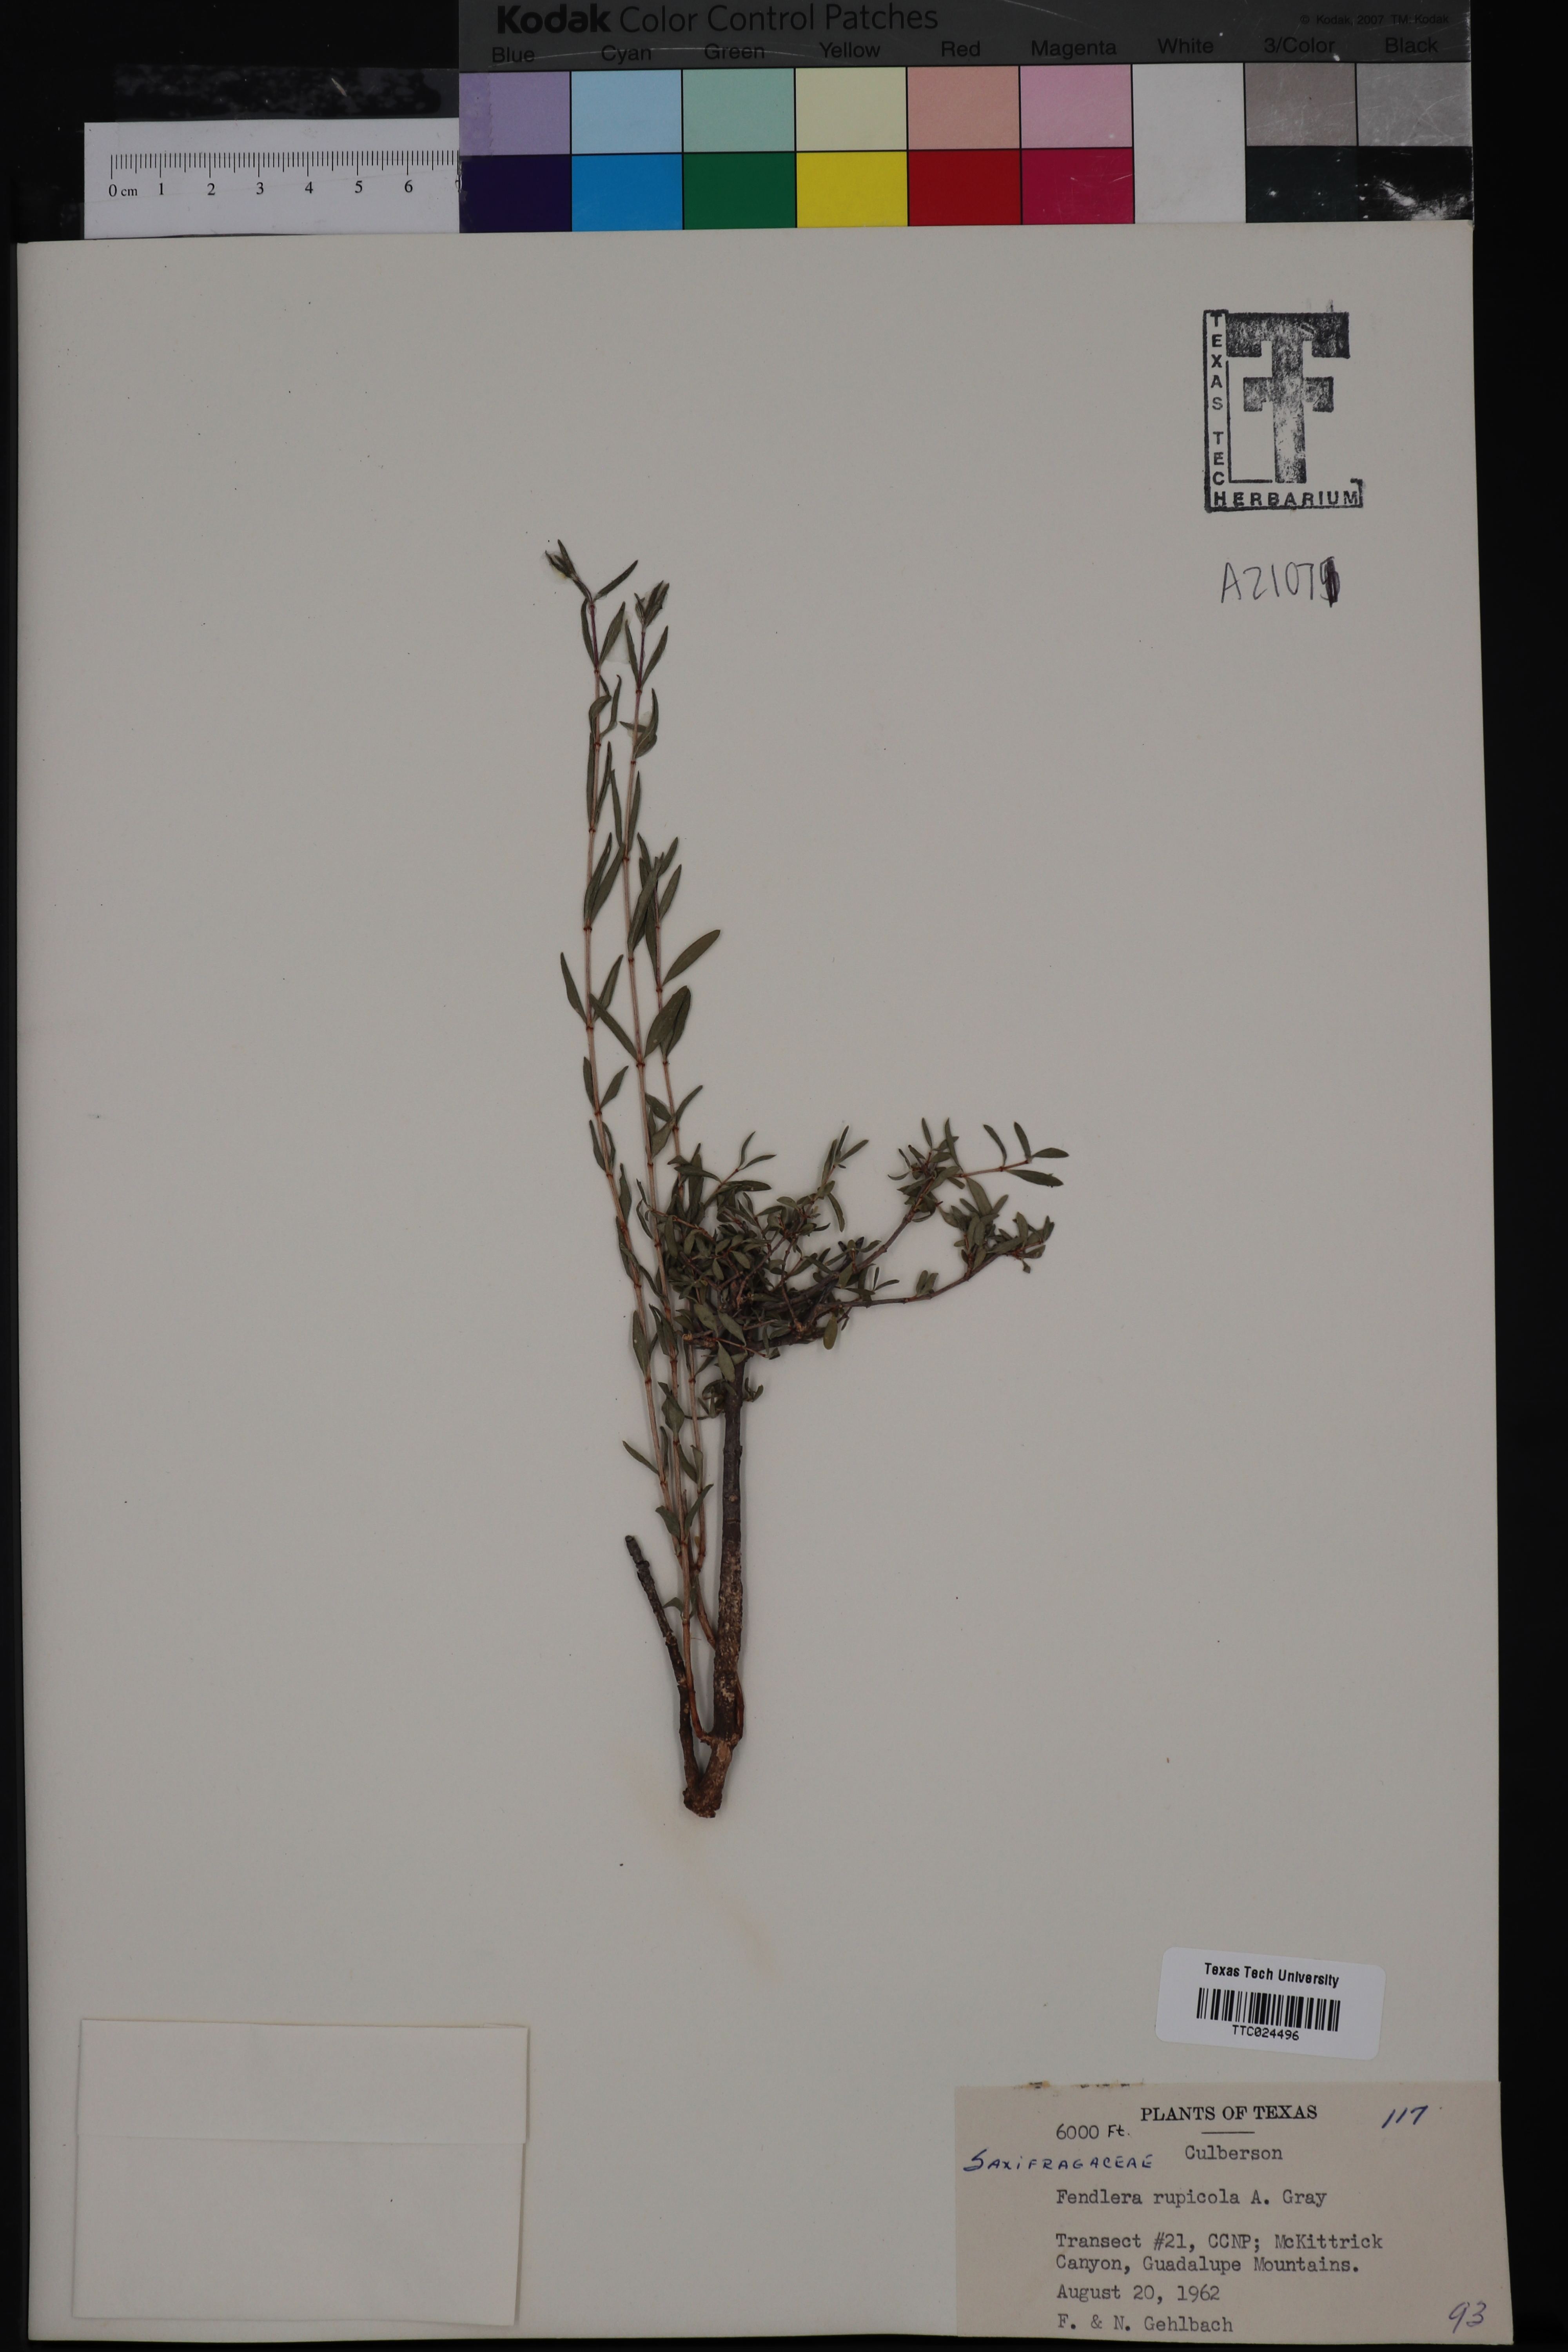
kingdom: Plantae
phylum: Tracheophyta
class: Magnoliopsida
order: Cornales
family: Hydrangeaceae
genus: Fendlera
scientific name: Fendlera rupicola
